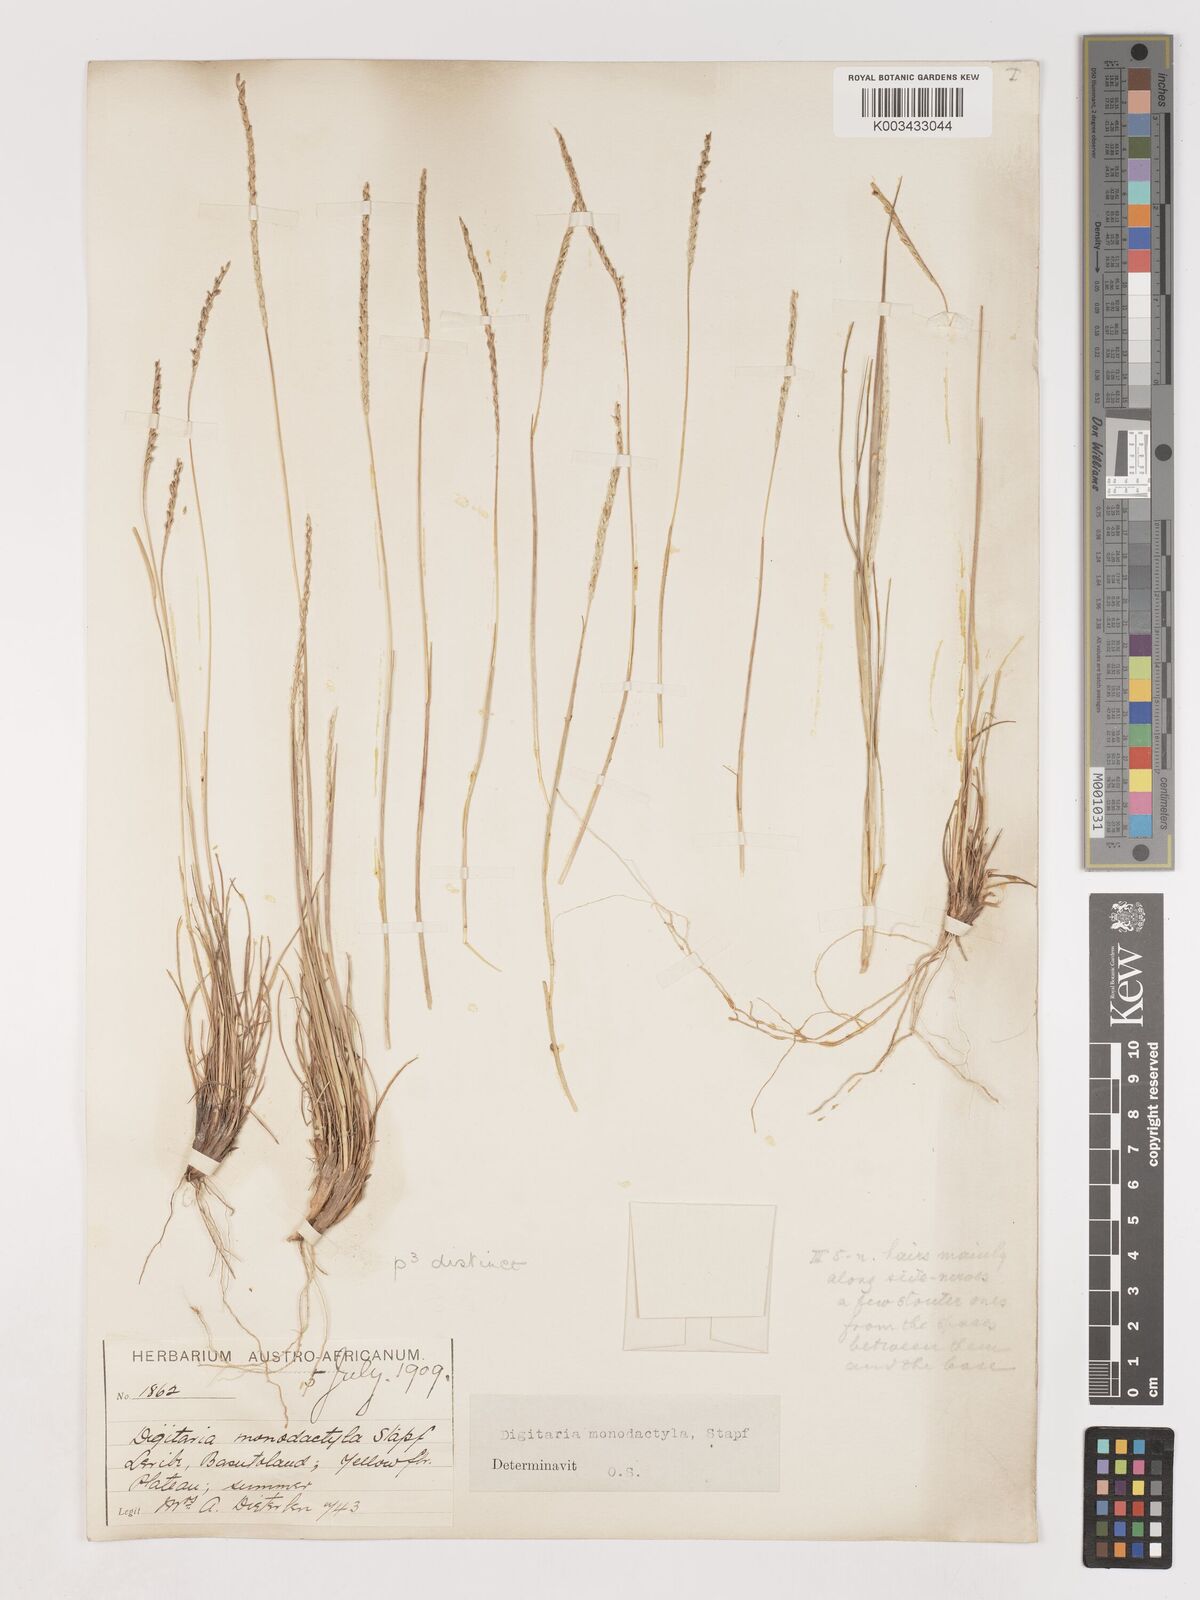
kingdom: Plantae
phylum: Tracheophyta
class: Liliopsida
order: Poales
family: Poaceae
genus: Digitaria
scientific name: Digitaria monodactyla
